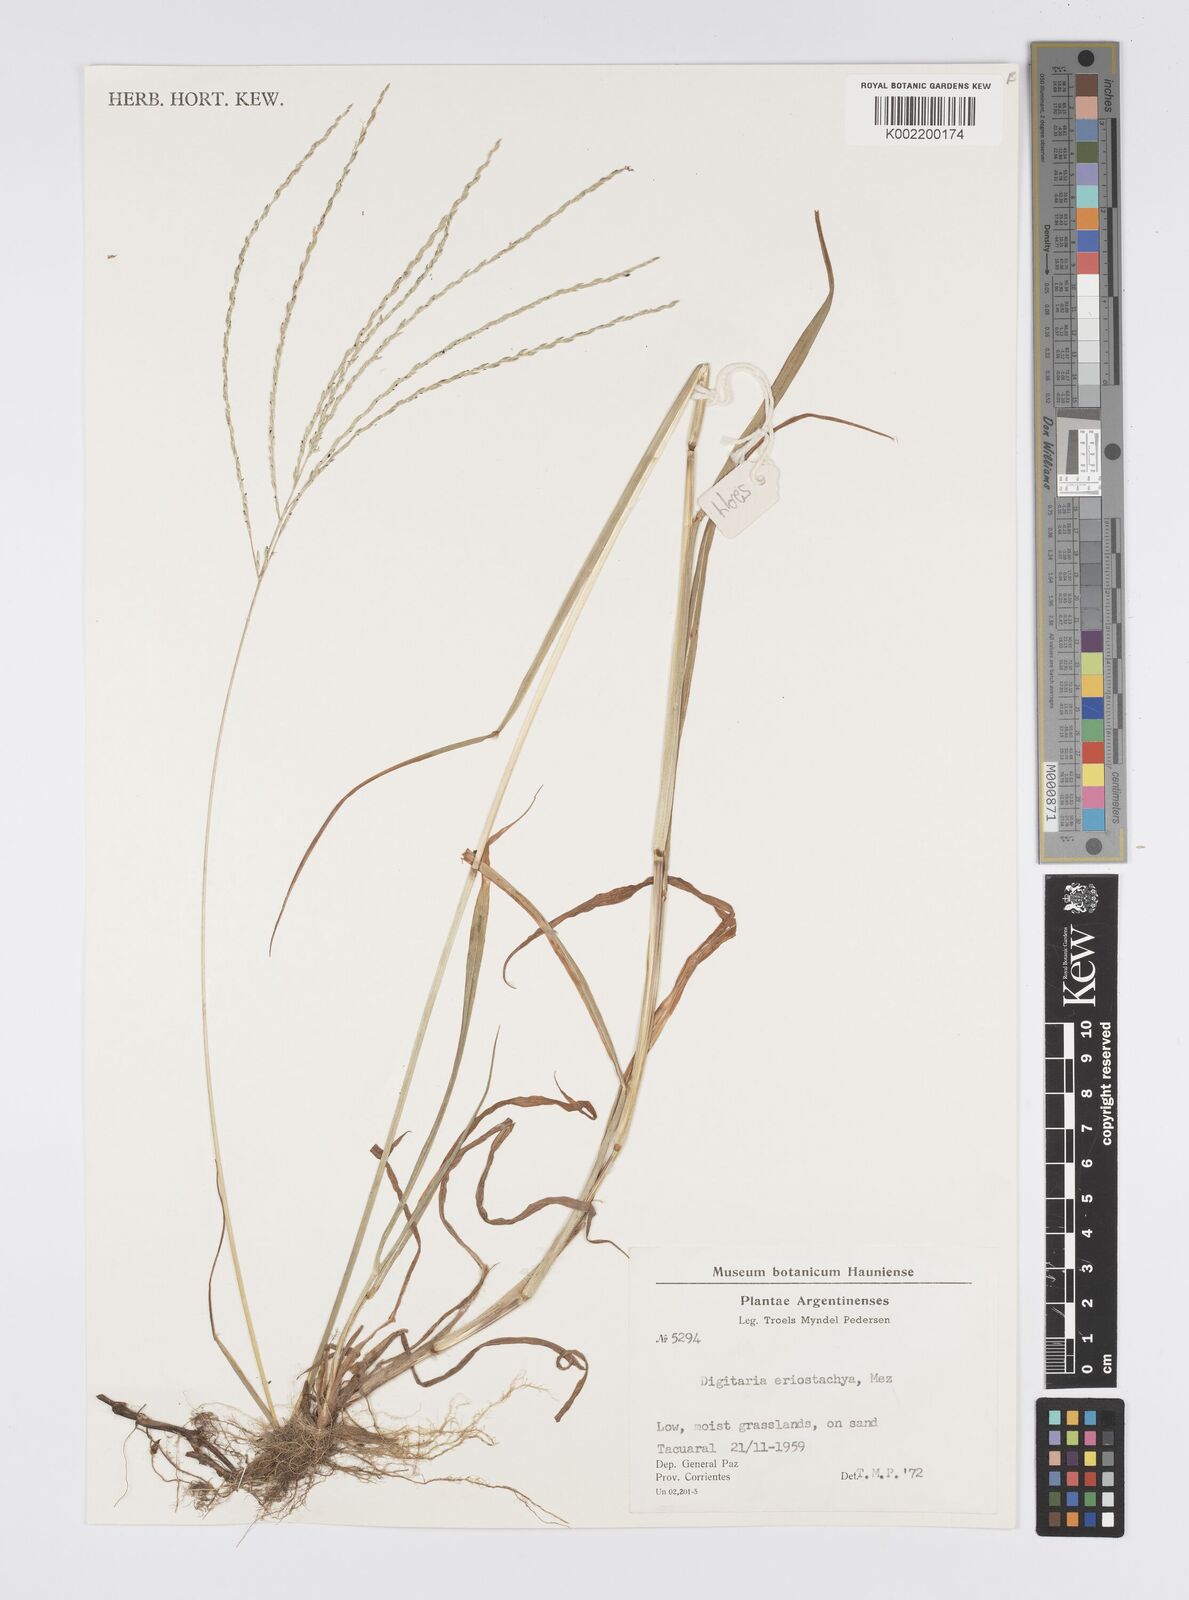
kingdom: Plantae
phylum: Tracheophyta
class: Liliopsida
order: Poales
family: Poaceae
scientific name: Poaceae
